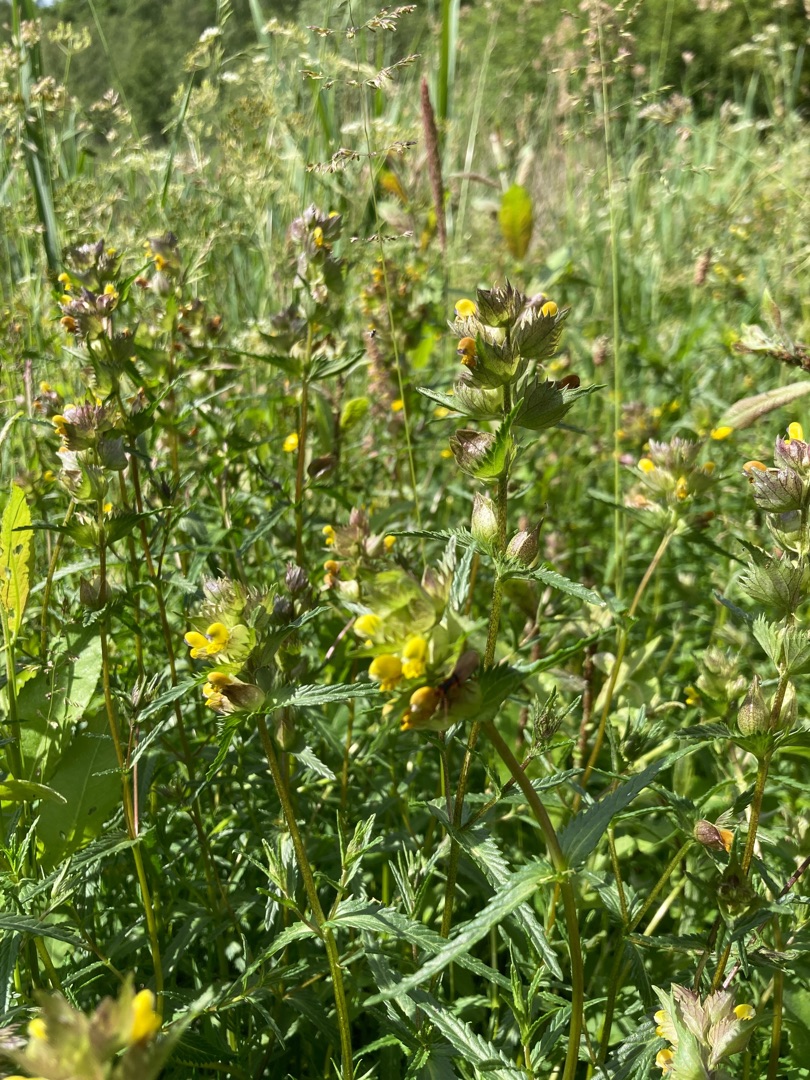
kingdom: Plantae
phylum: Tracheophyta
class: Magnoliopsida
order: Lamiales
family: Orobanchaceae
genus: Rhinanthus
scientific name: Rhinanthus minor
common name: Liden skjaller
